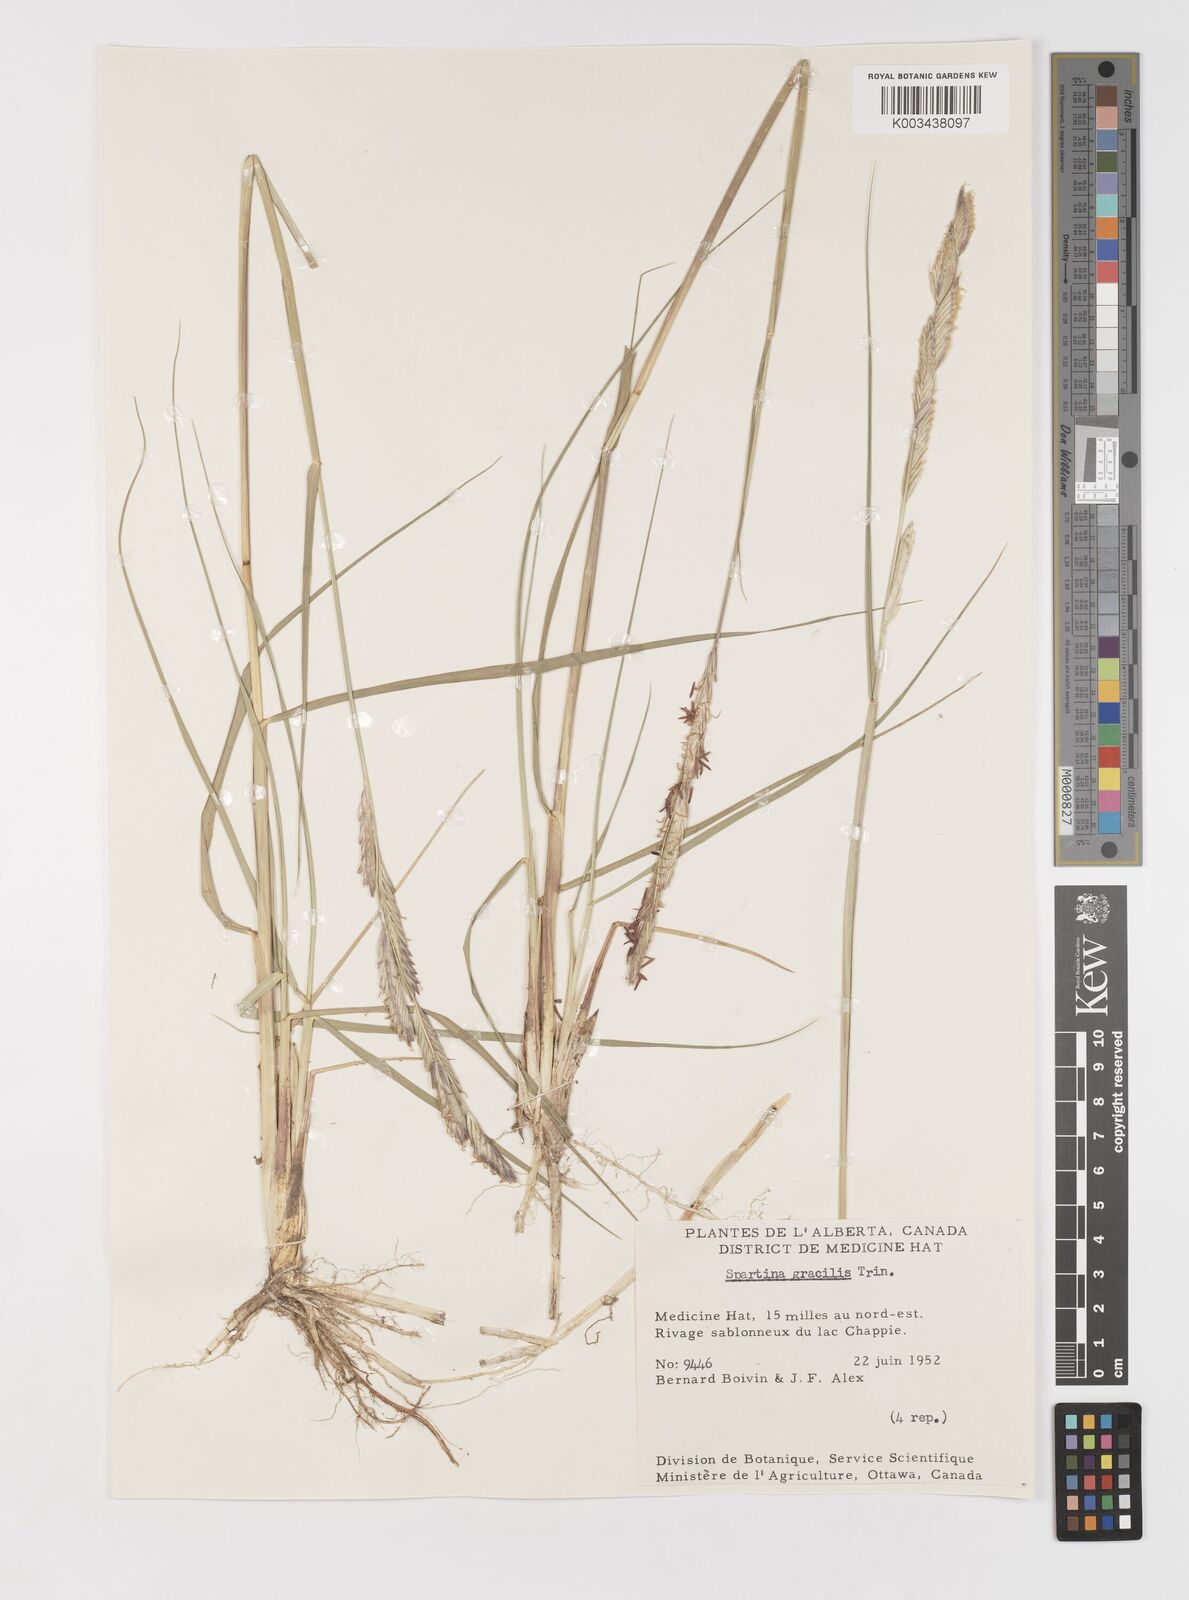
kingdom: Plantae
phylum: Tracheophyta
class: Liliopsida
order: Poales
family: Poaceae
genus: Sporobolus
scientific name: Sporobolus hookerianus
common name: Alkali cordgrass
